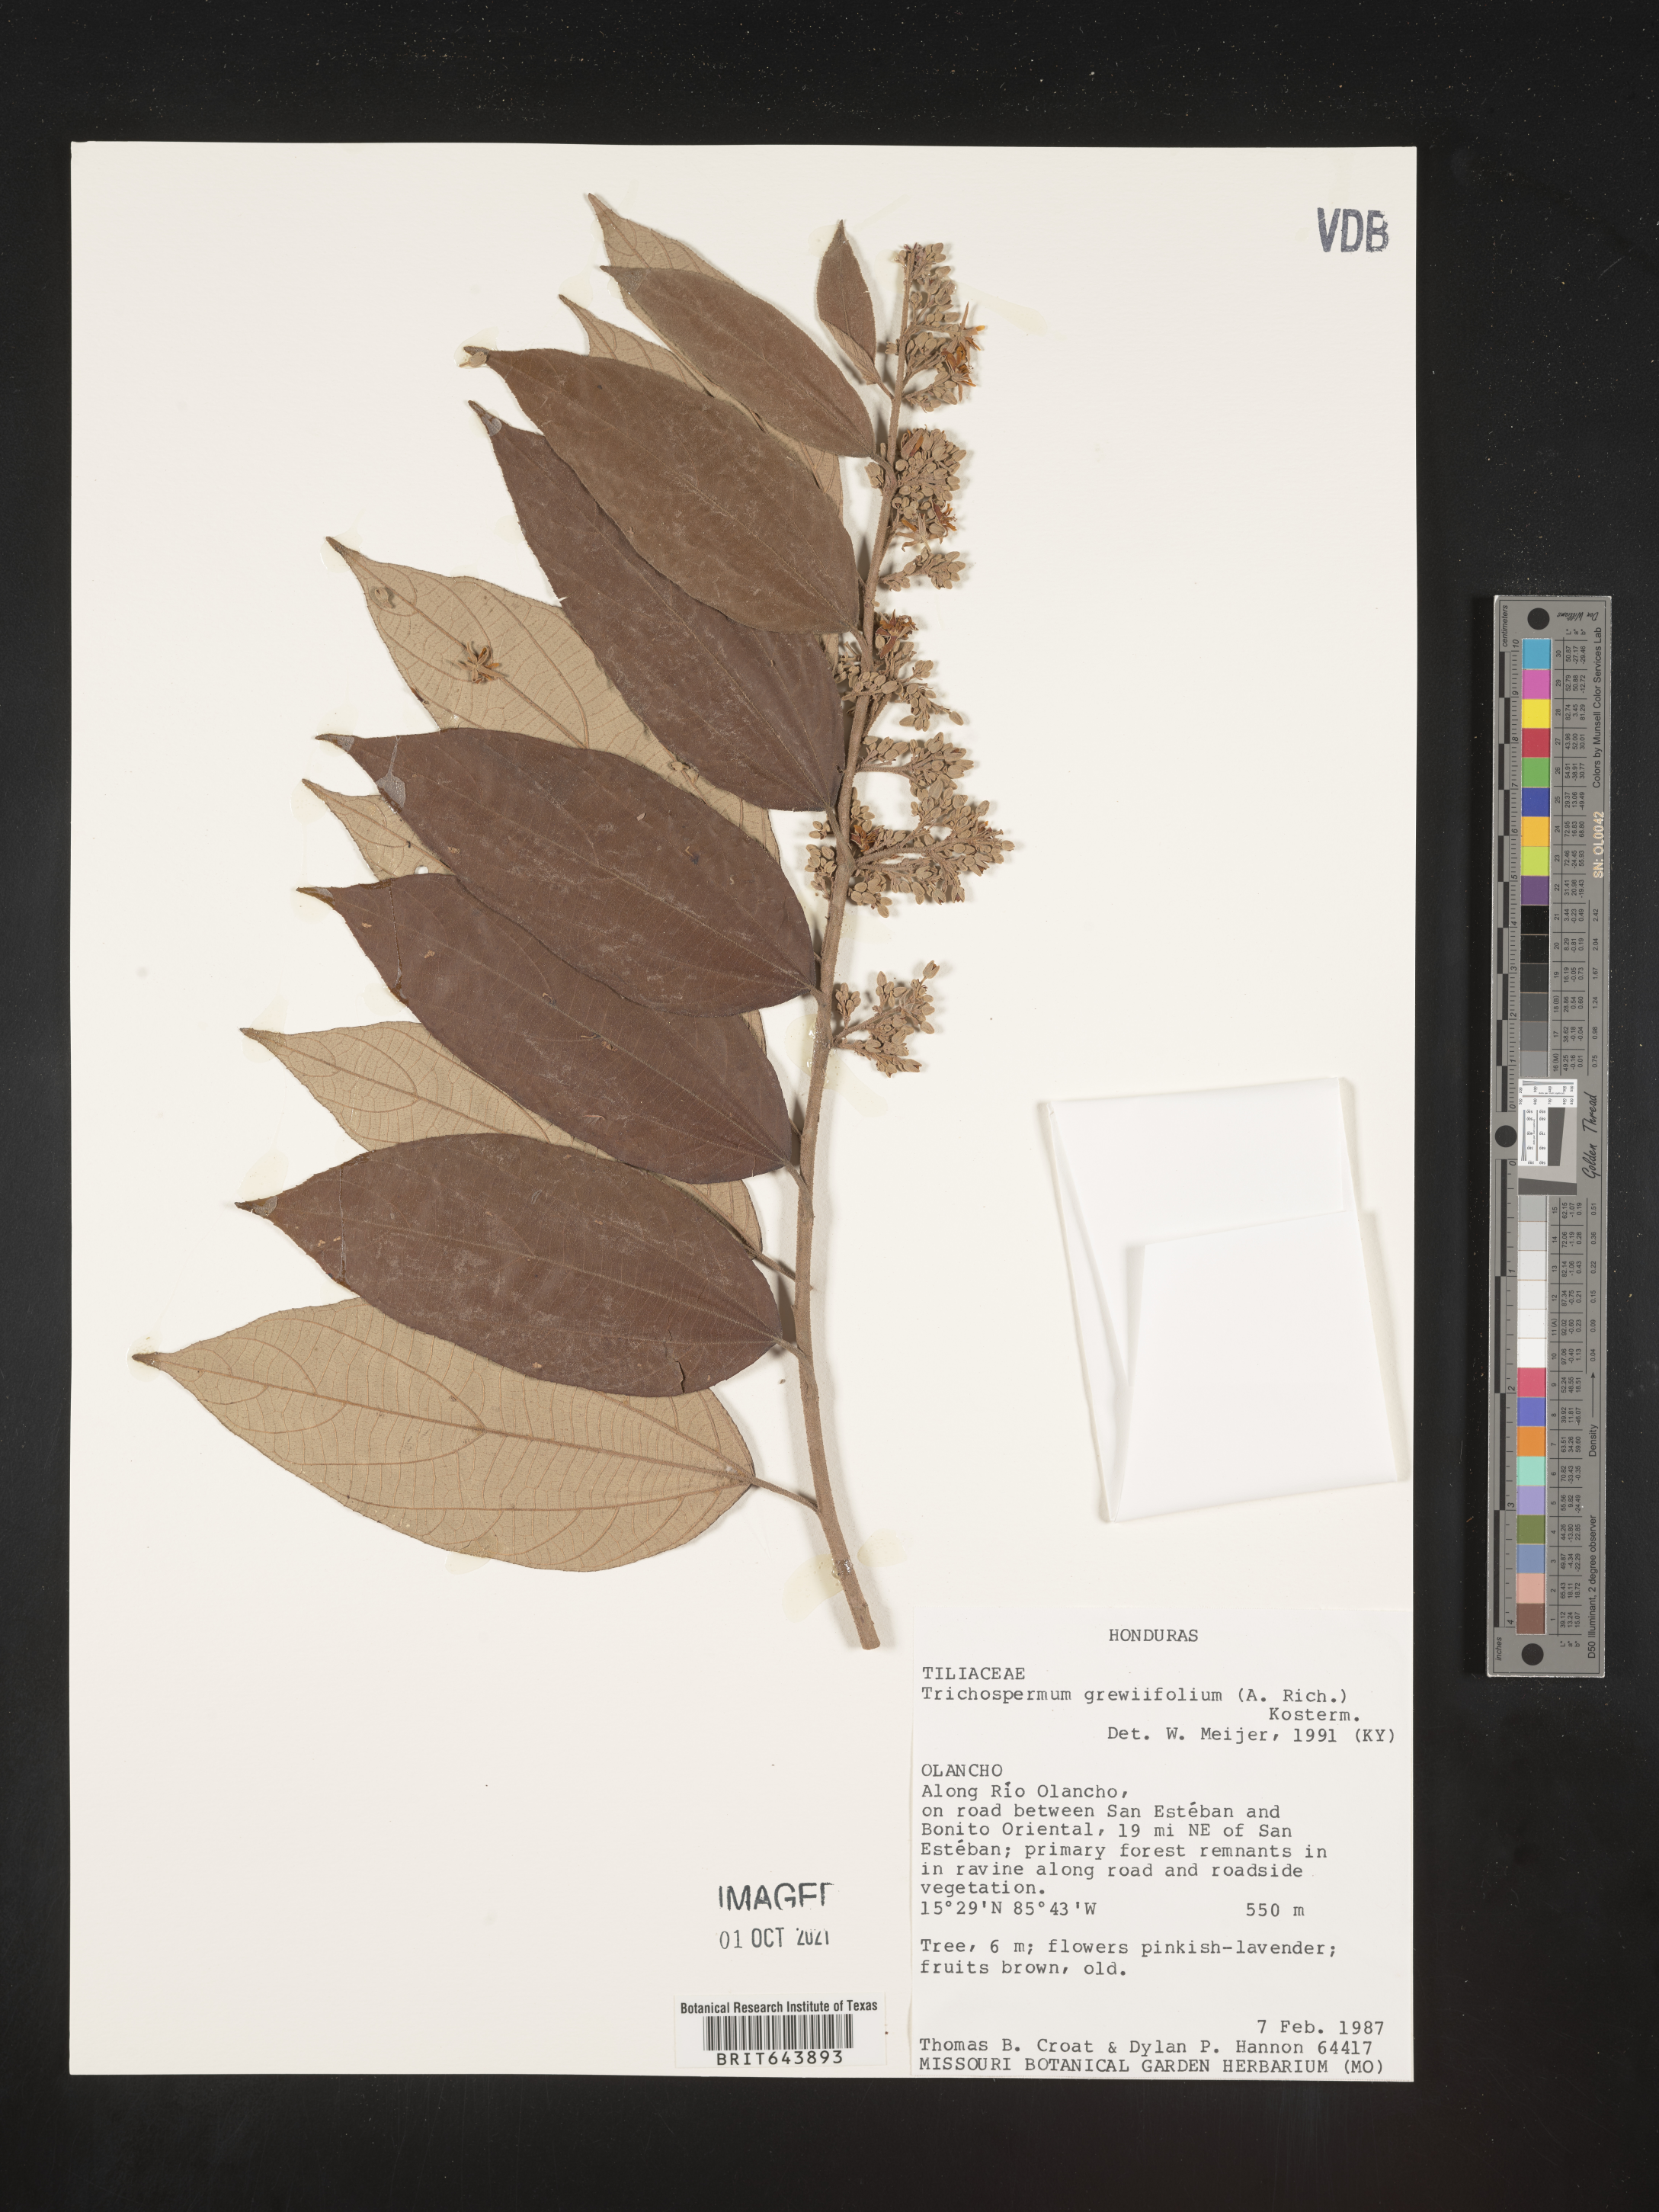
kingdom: Plantae
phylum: Tracheophyta
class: Magnoliopsida
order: Malvales
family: Malvaceae
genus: Trichospermum
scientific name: Trichospermum
